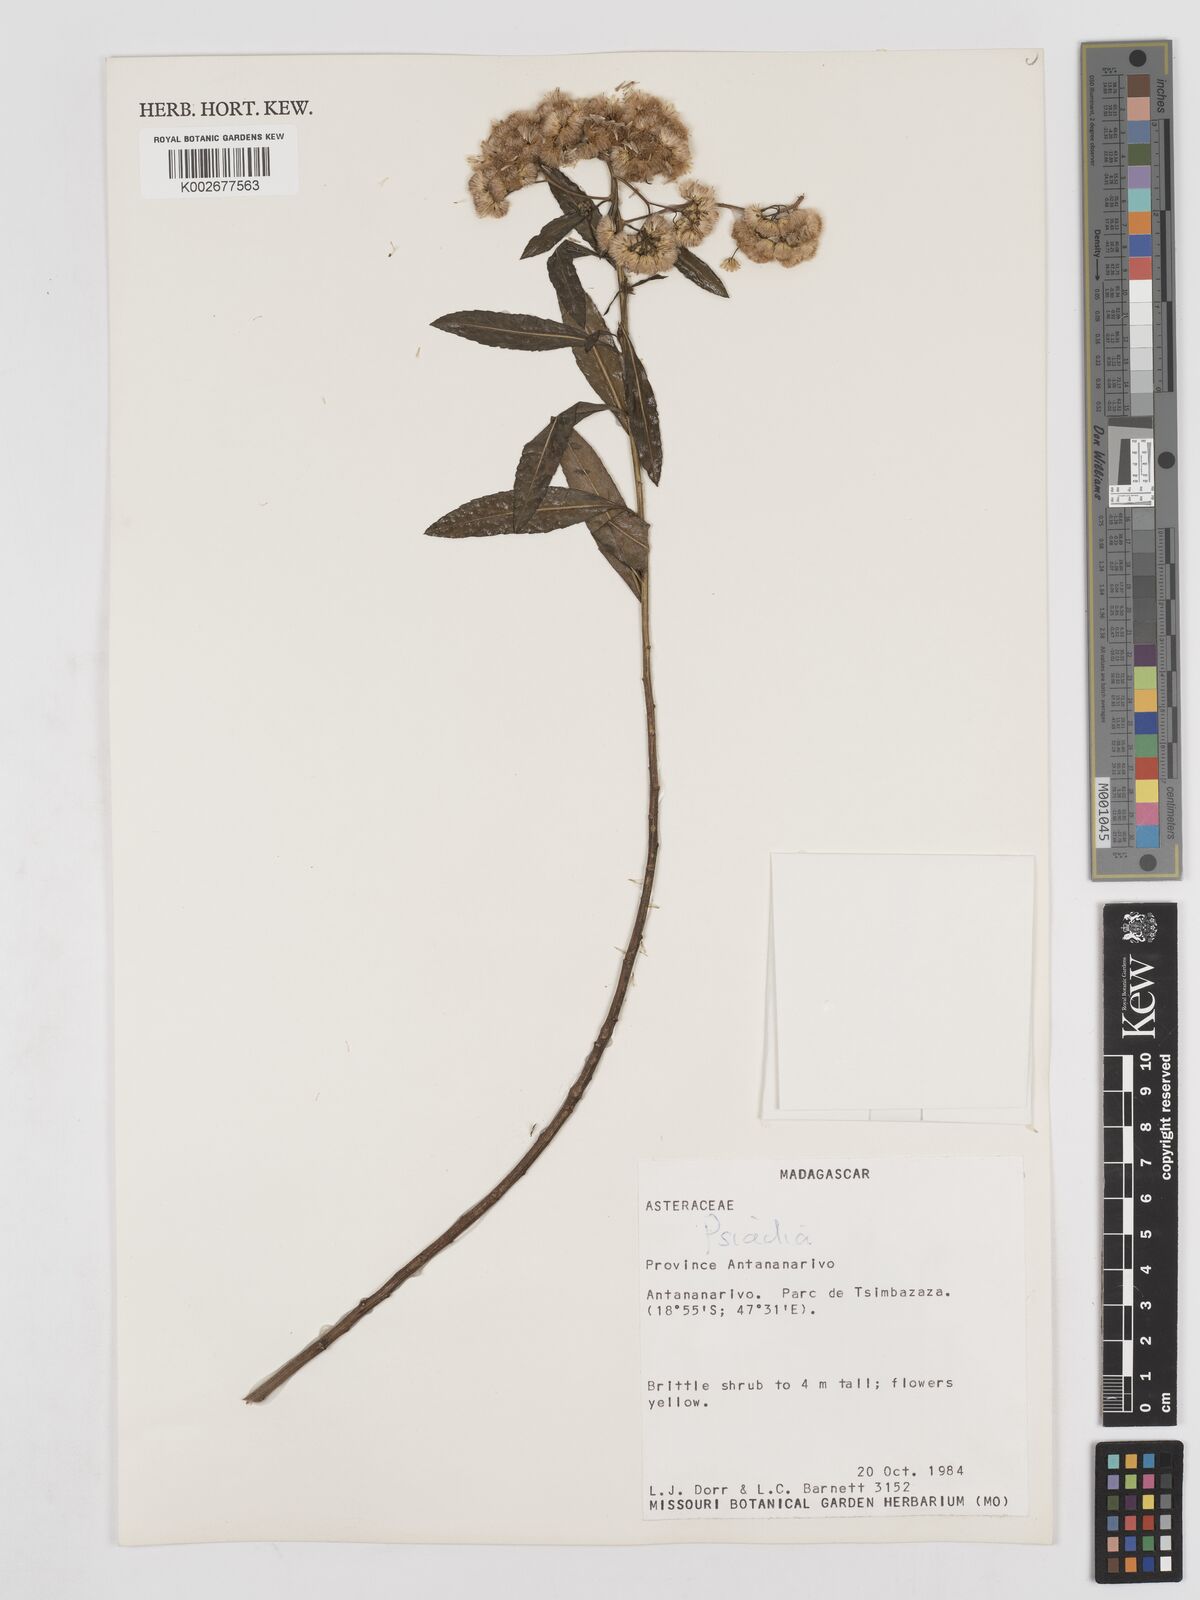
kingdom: Plantae
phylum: Tracheophyta
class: Magnoliopsida
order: Asterales
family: Asteraceae
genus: Psiadia
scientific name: Psiadia
